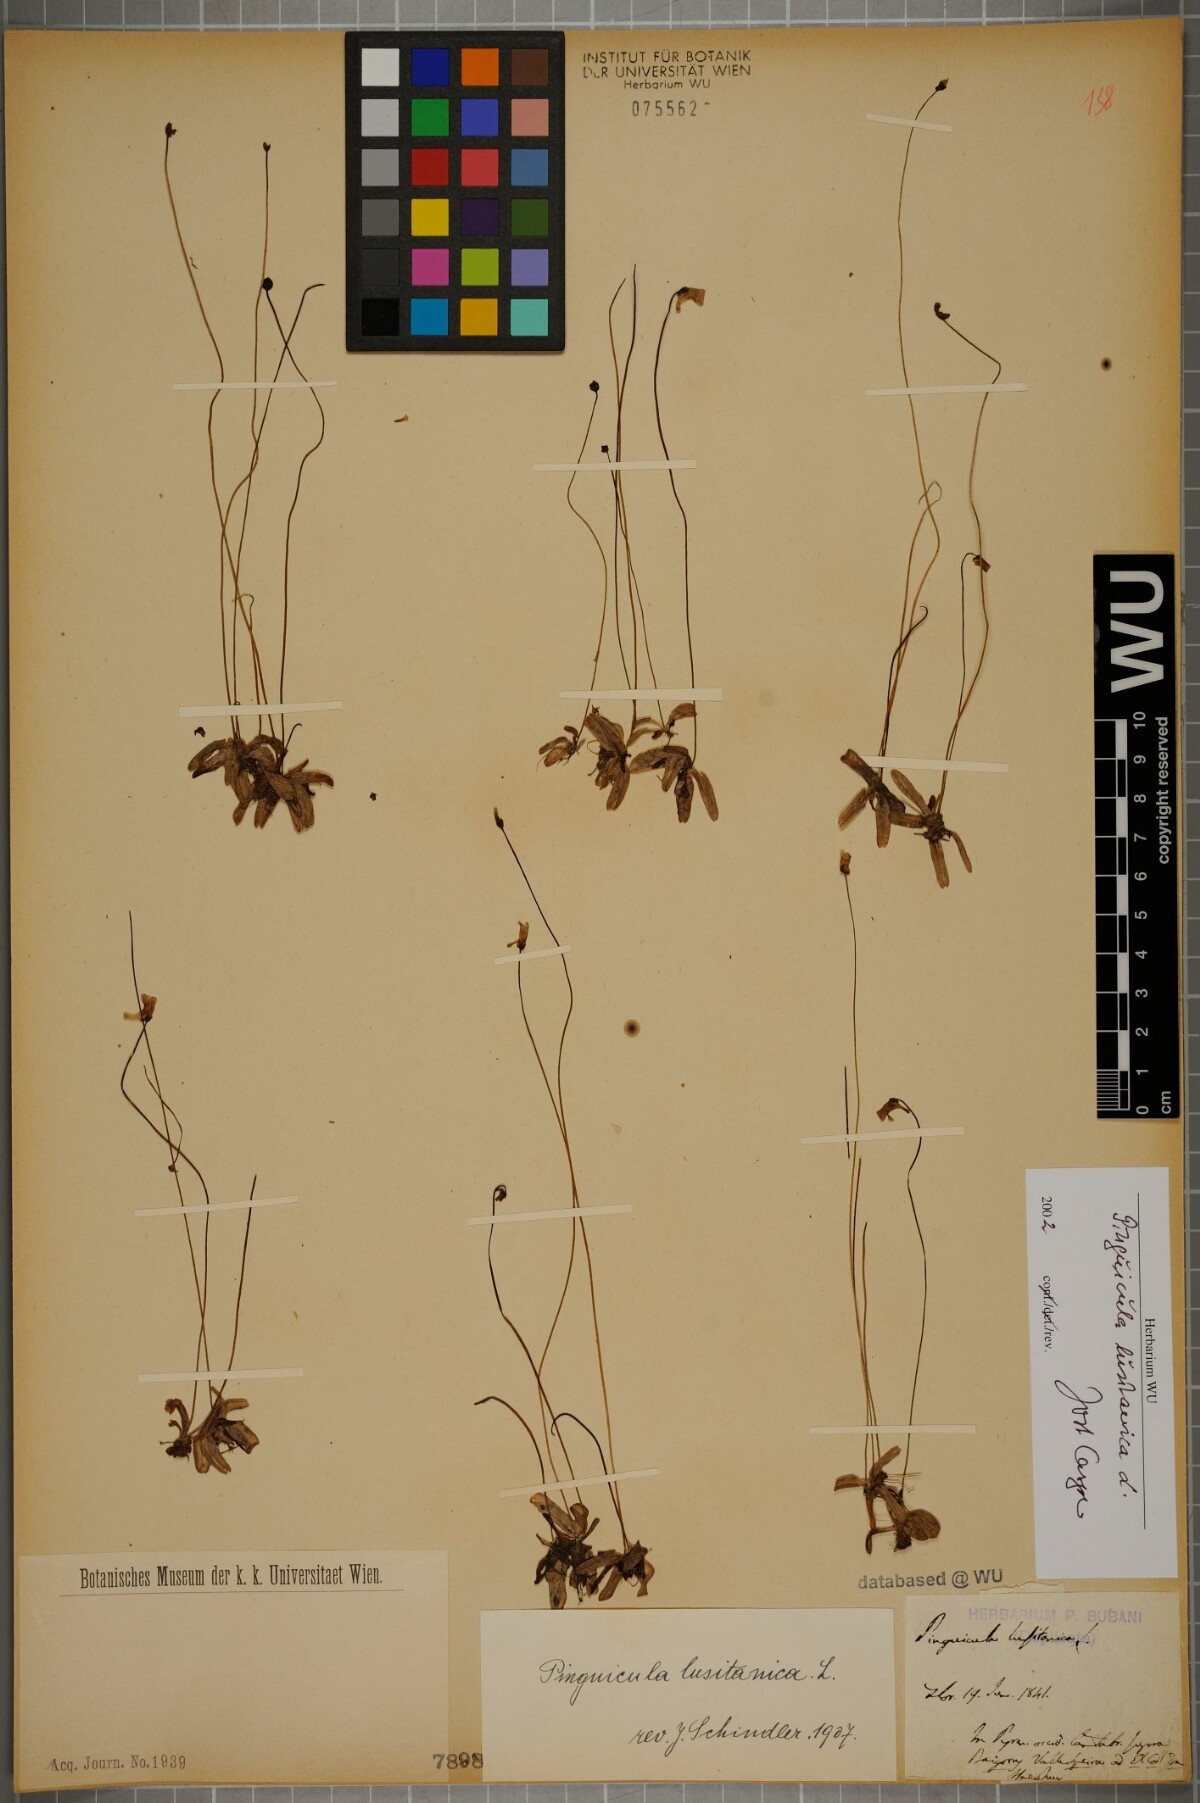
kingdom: Plantae
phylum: Tracheophyta
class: Magnoliopsida
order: Lamiales
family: Lentibulariaceae
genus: Pinguicula
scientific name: Pinguicula lusitanica
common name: Pale butterwort
